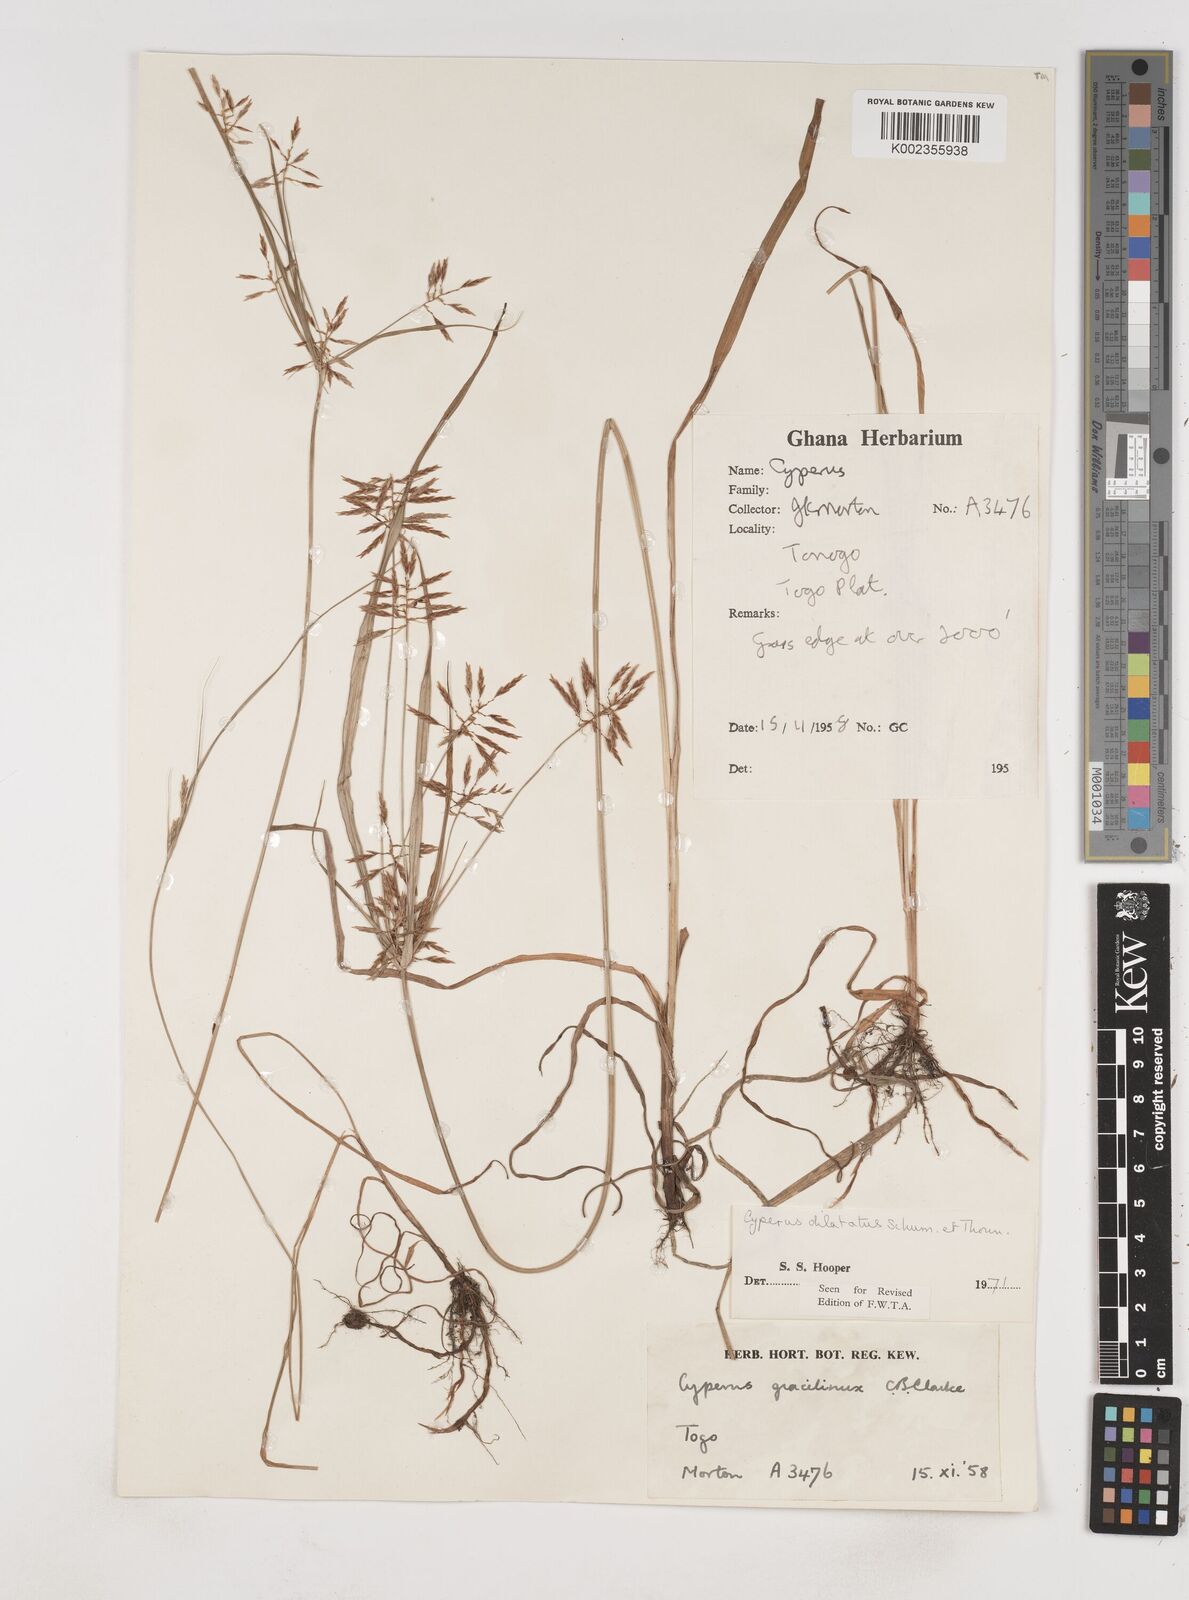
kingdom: Plantae
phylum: Tracheophyta
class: Liliopsida
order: Poales
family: Cyperaceae
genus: Cyperus
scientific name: Cyperus dilatatus
